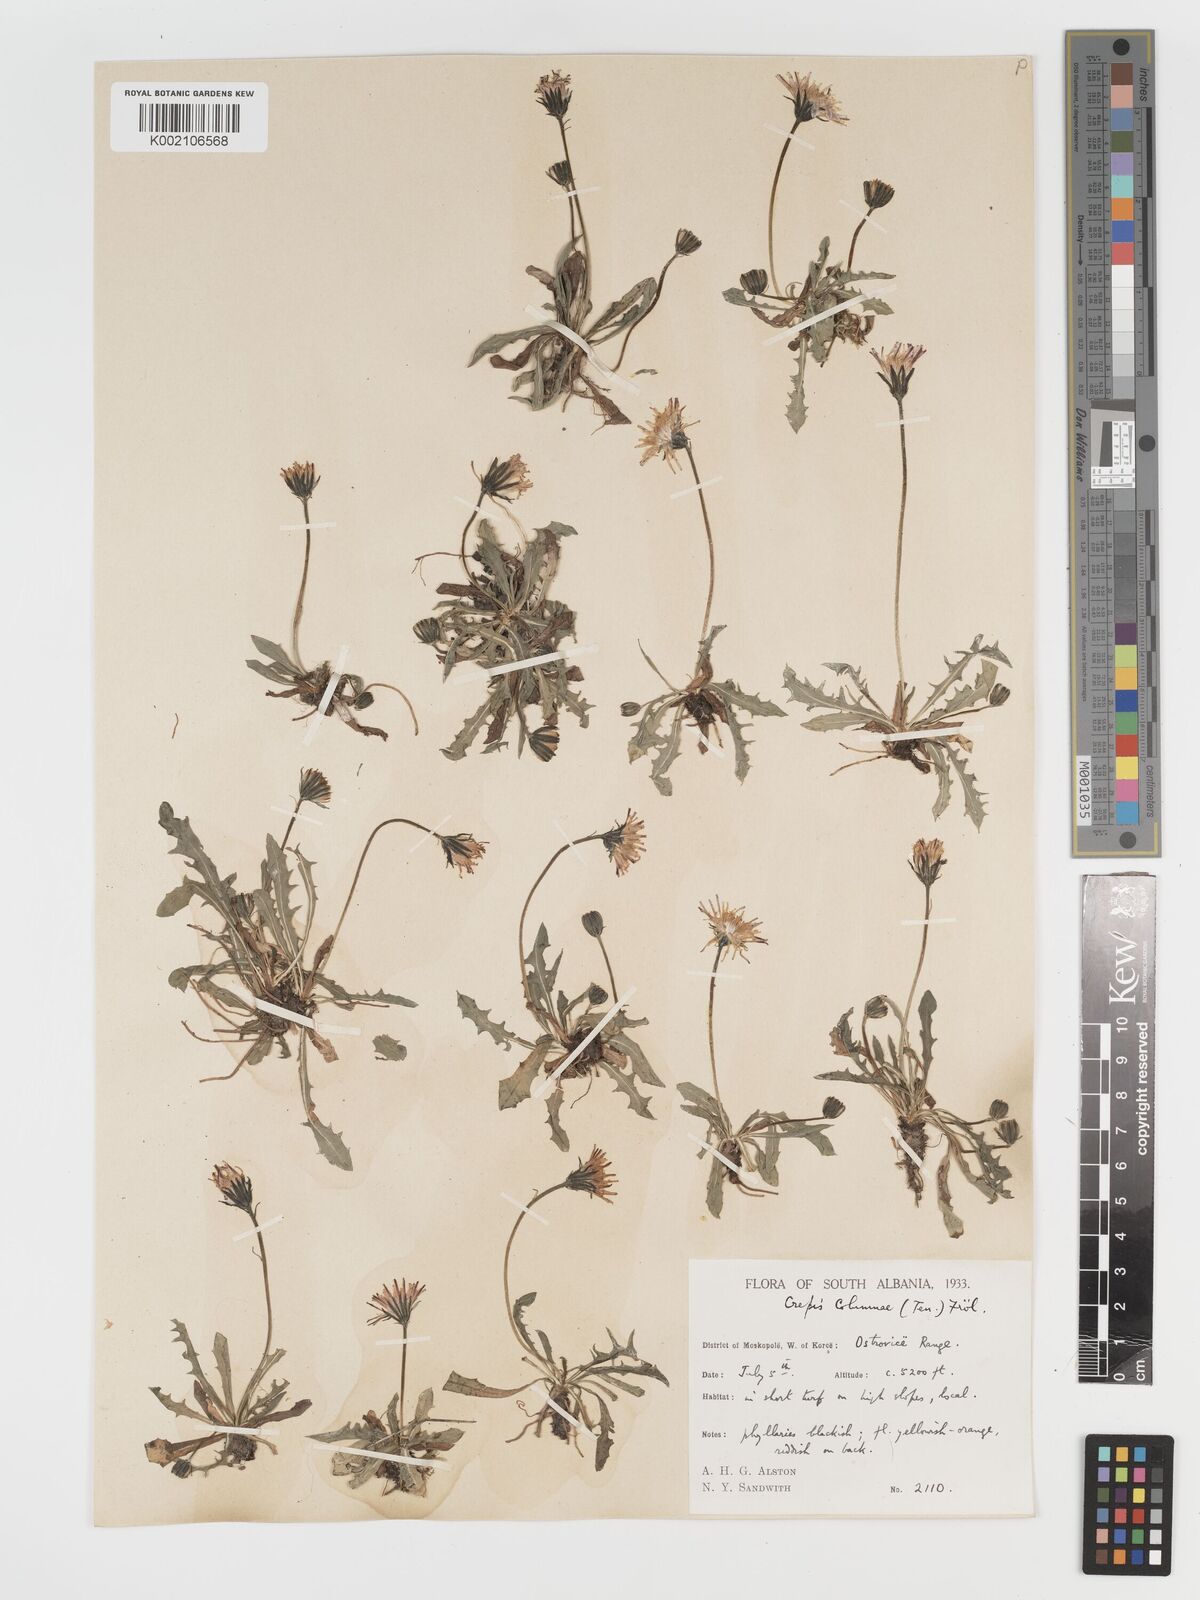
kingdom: Plantae
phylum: Tracheophyta
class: Magnoliopsida
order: Asterales
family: Asteraceae
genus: Crepis
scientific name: Crepis aurea
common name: Golden hawk's-beard
